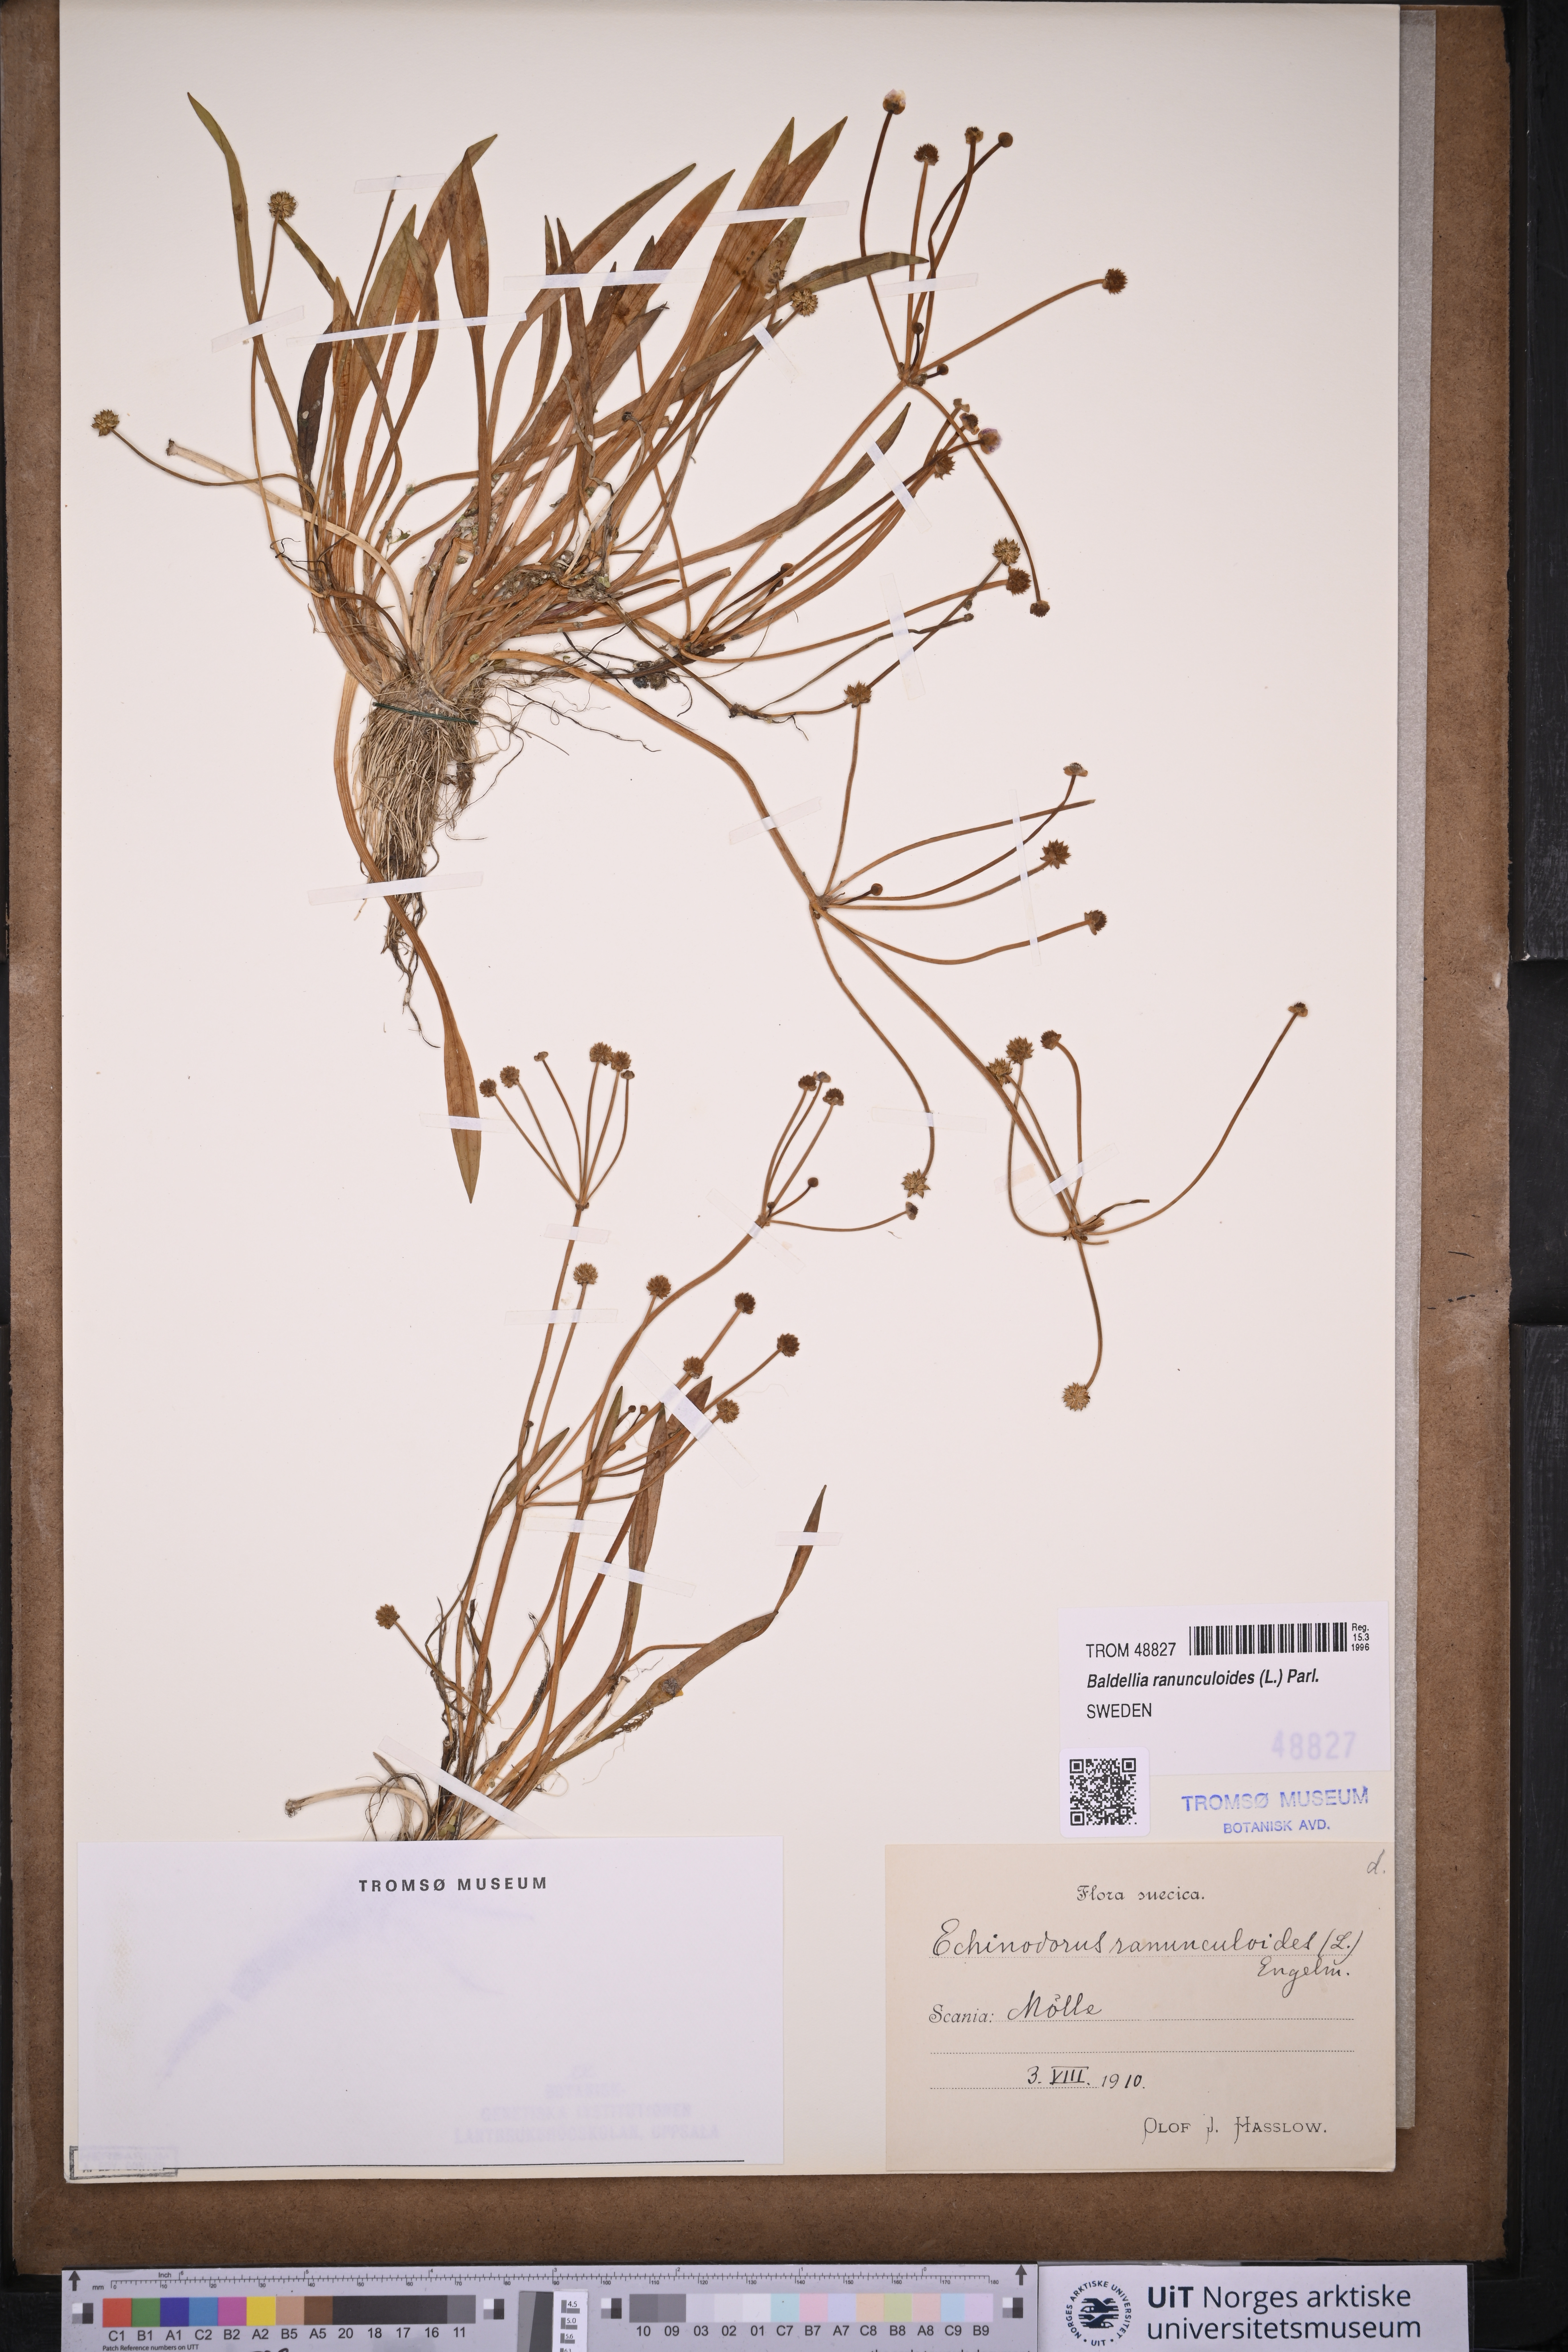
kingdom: Plantae
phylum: Tracheophyta
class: Liliopsida
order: Alismatales
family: Alismataceae
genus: Baldellia
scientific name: Baldellia ranunculoides
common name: Lesser water-plantain
